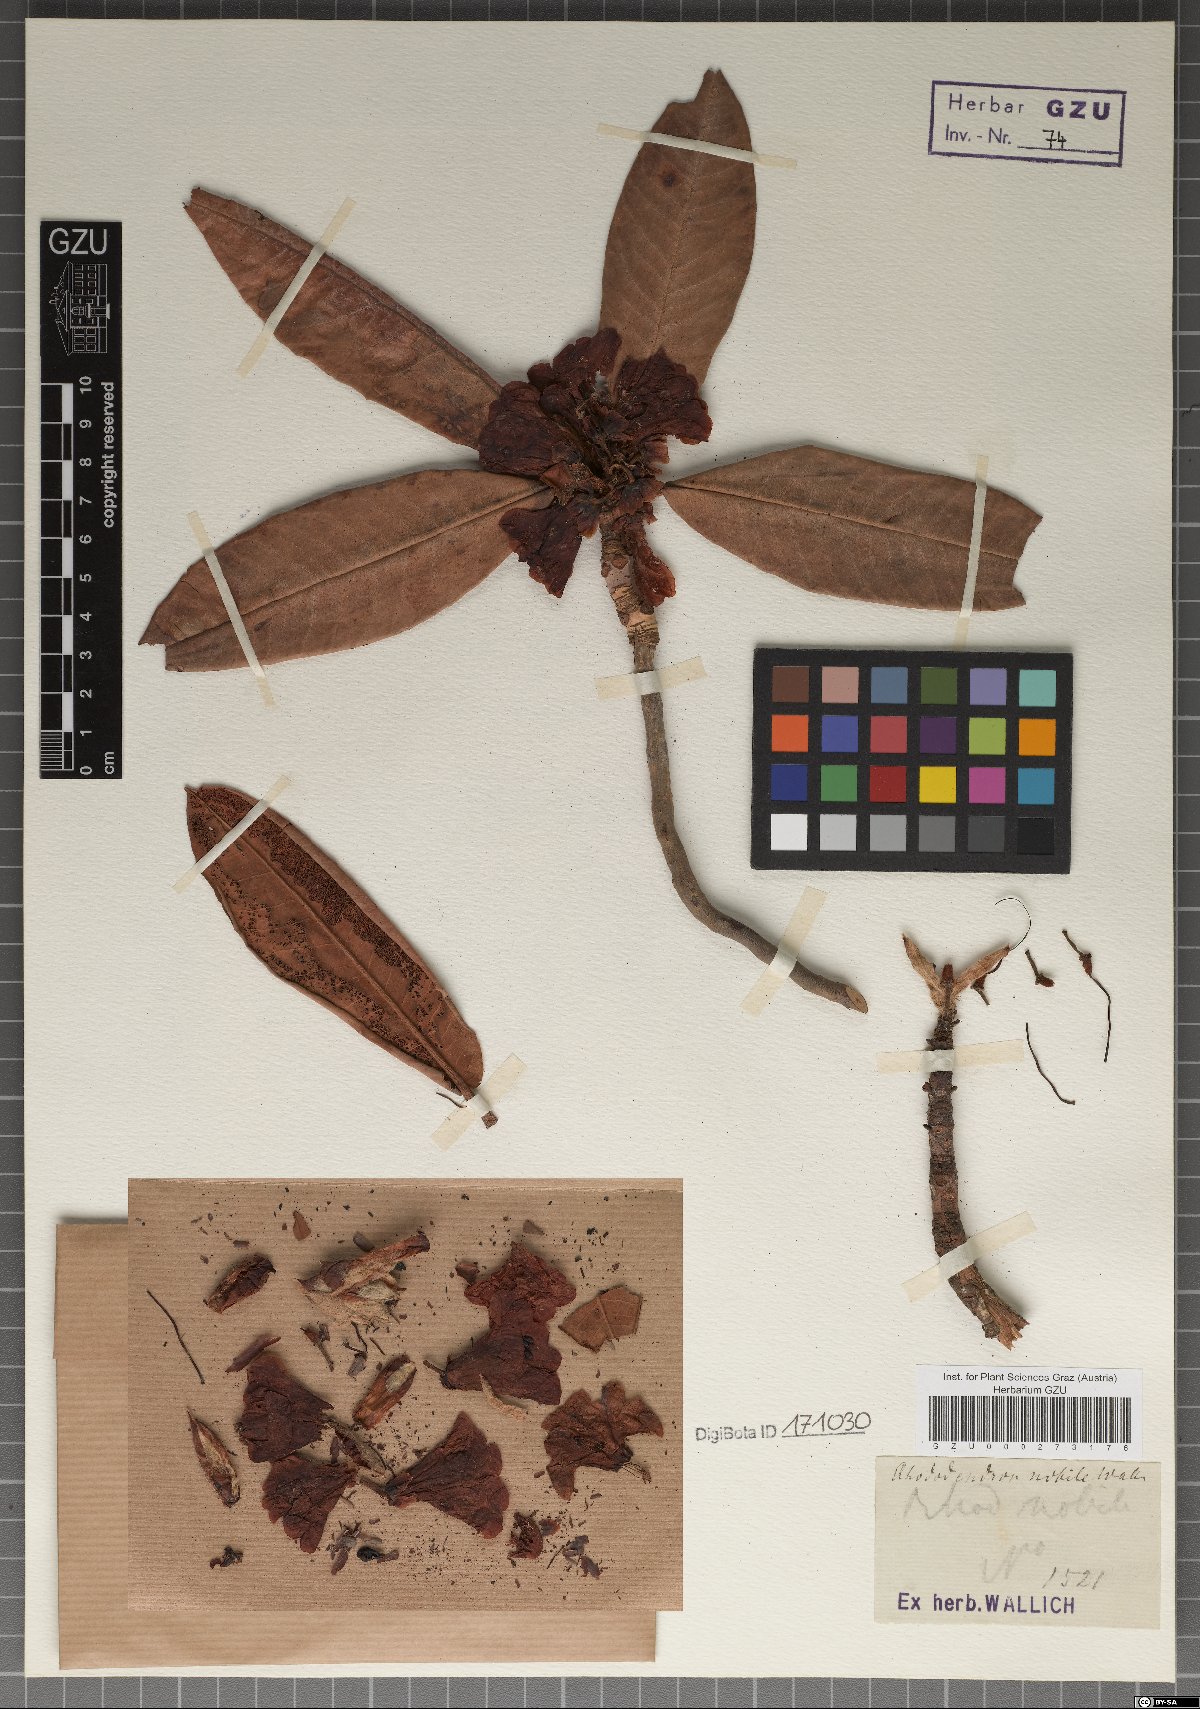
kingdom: Plantae
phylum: Tracheophyta
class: Magnoliopsida
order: Ericales
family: Ericaceae
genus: Rhododendron
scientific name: Rhododendron campanulatum
